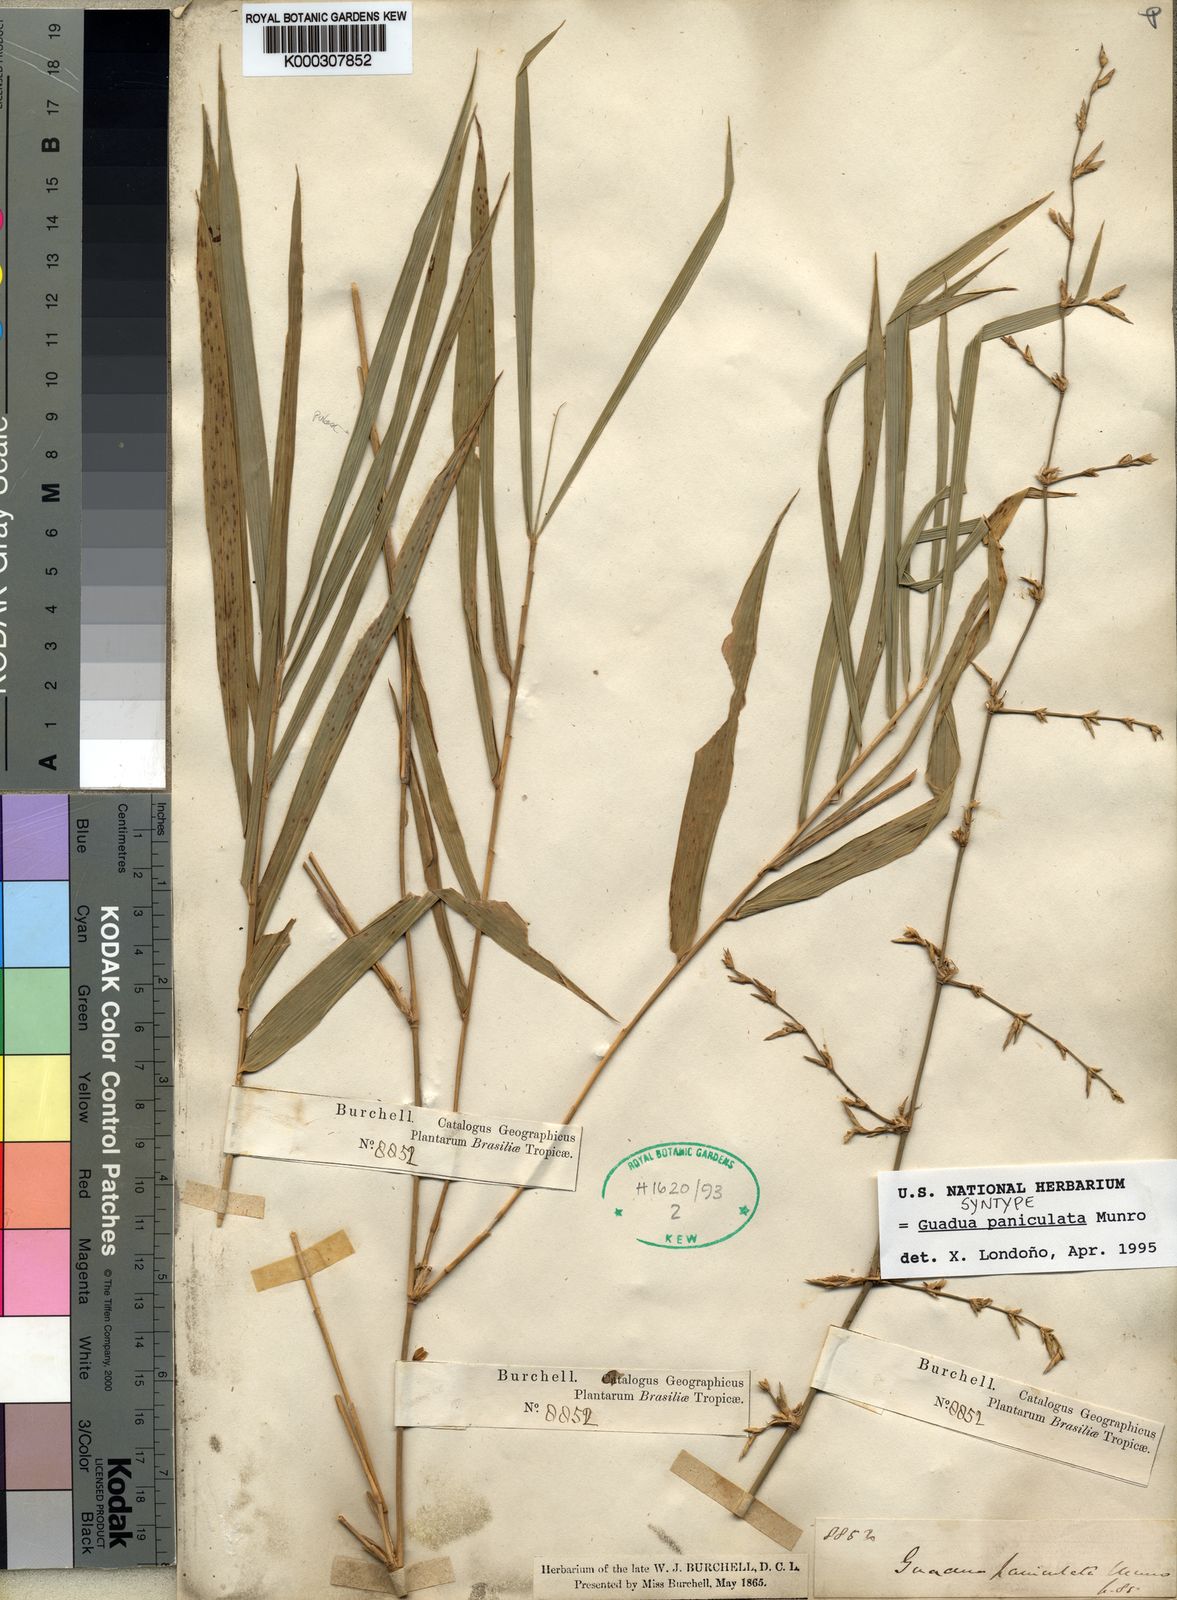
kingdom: Plantae
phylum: Tracheophyta
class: Liliopsida
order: Poales
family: Poaceae
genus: Guadua
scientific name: Guadua refracta
